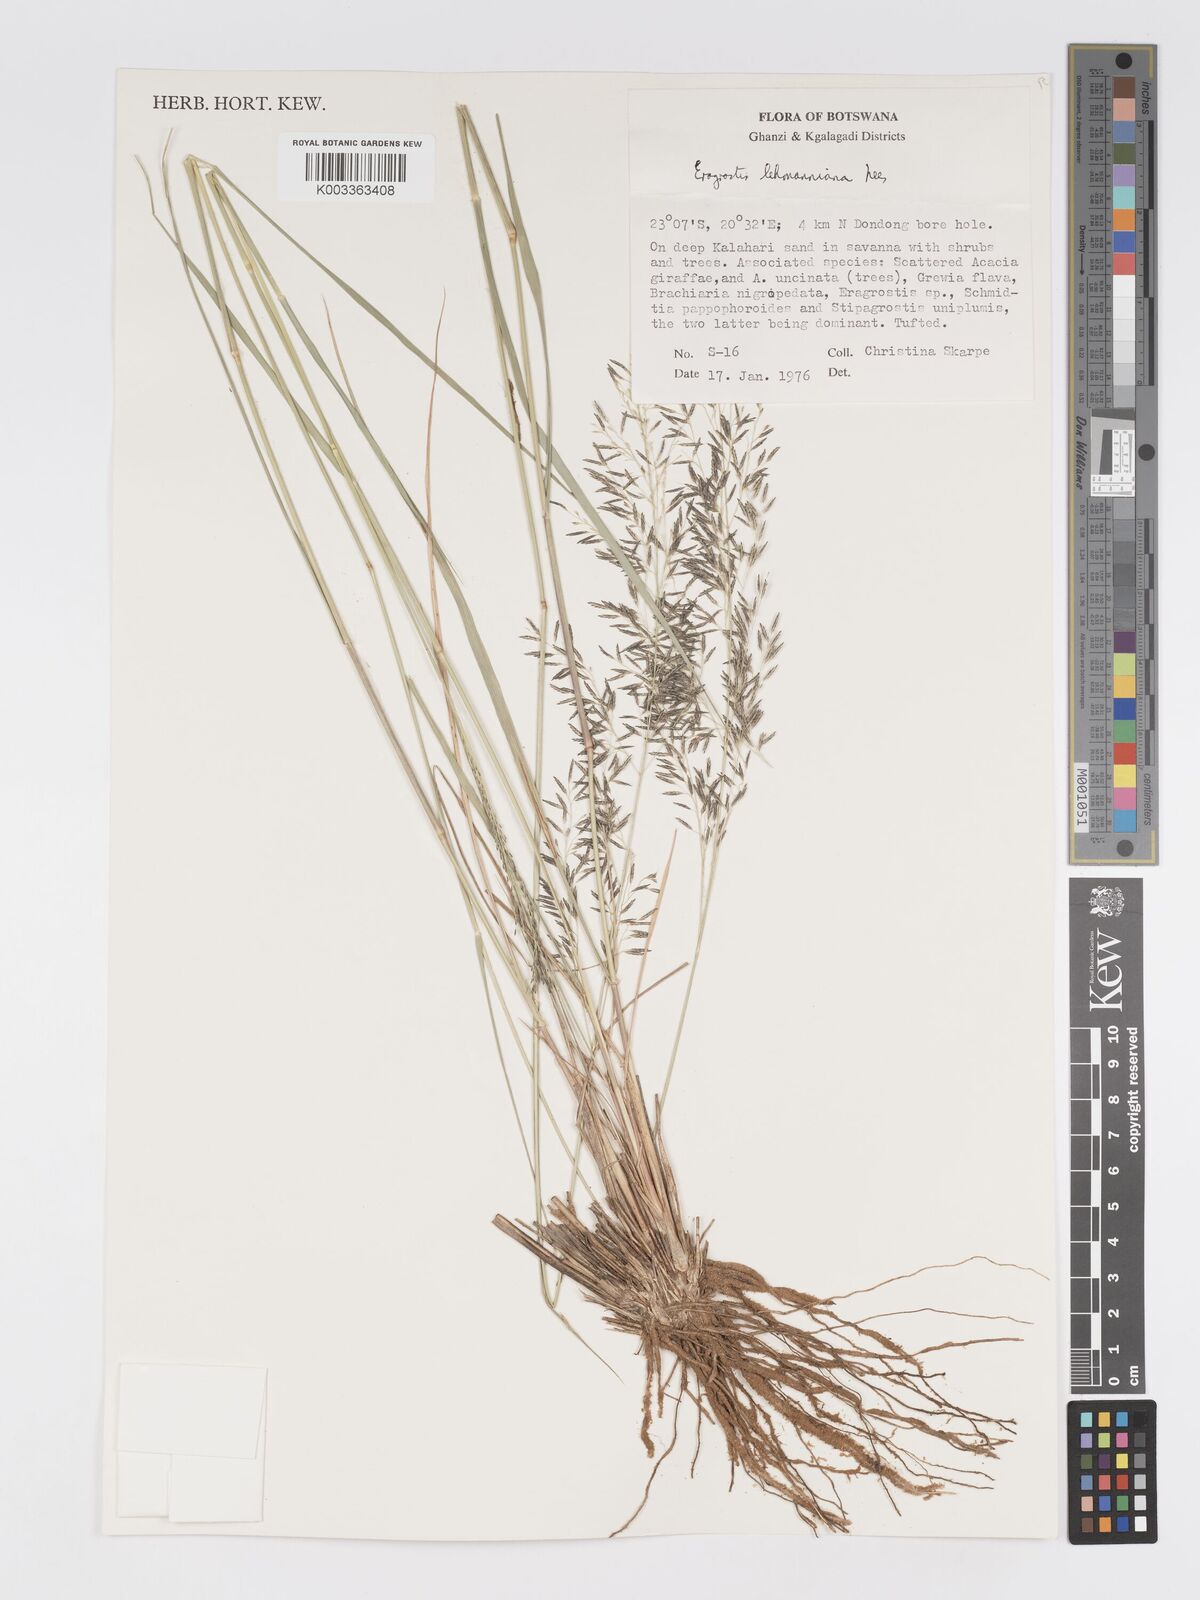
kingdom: Plantae
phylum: Tracheophyta
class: Liliopsida
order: Poales
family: Poaceae
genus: Eragrostis
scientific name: Eragrostis lehmanniana
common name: Lehmann lovegrass
